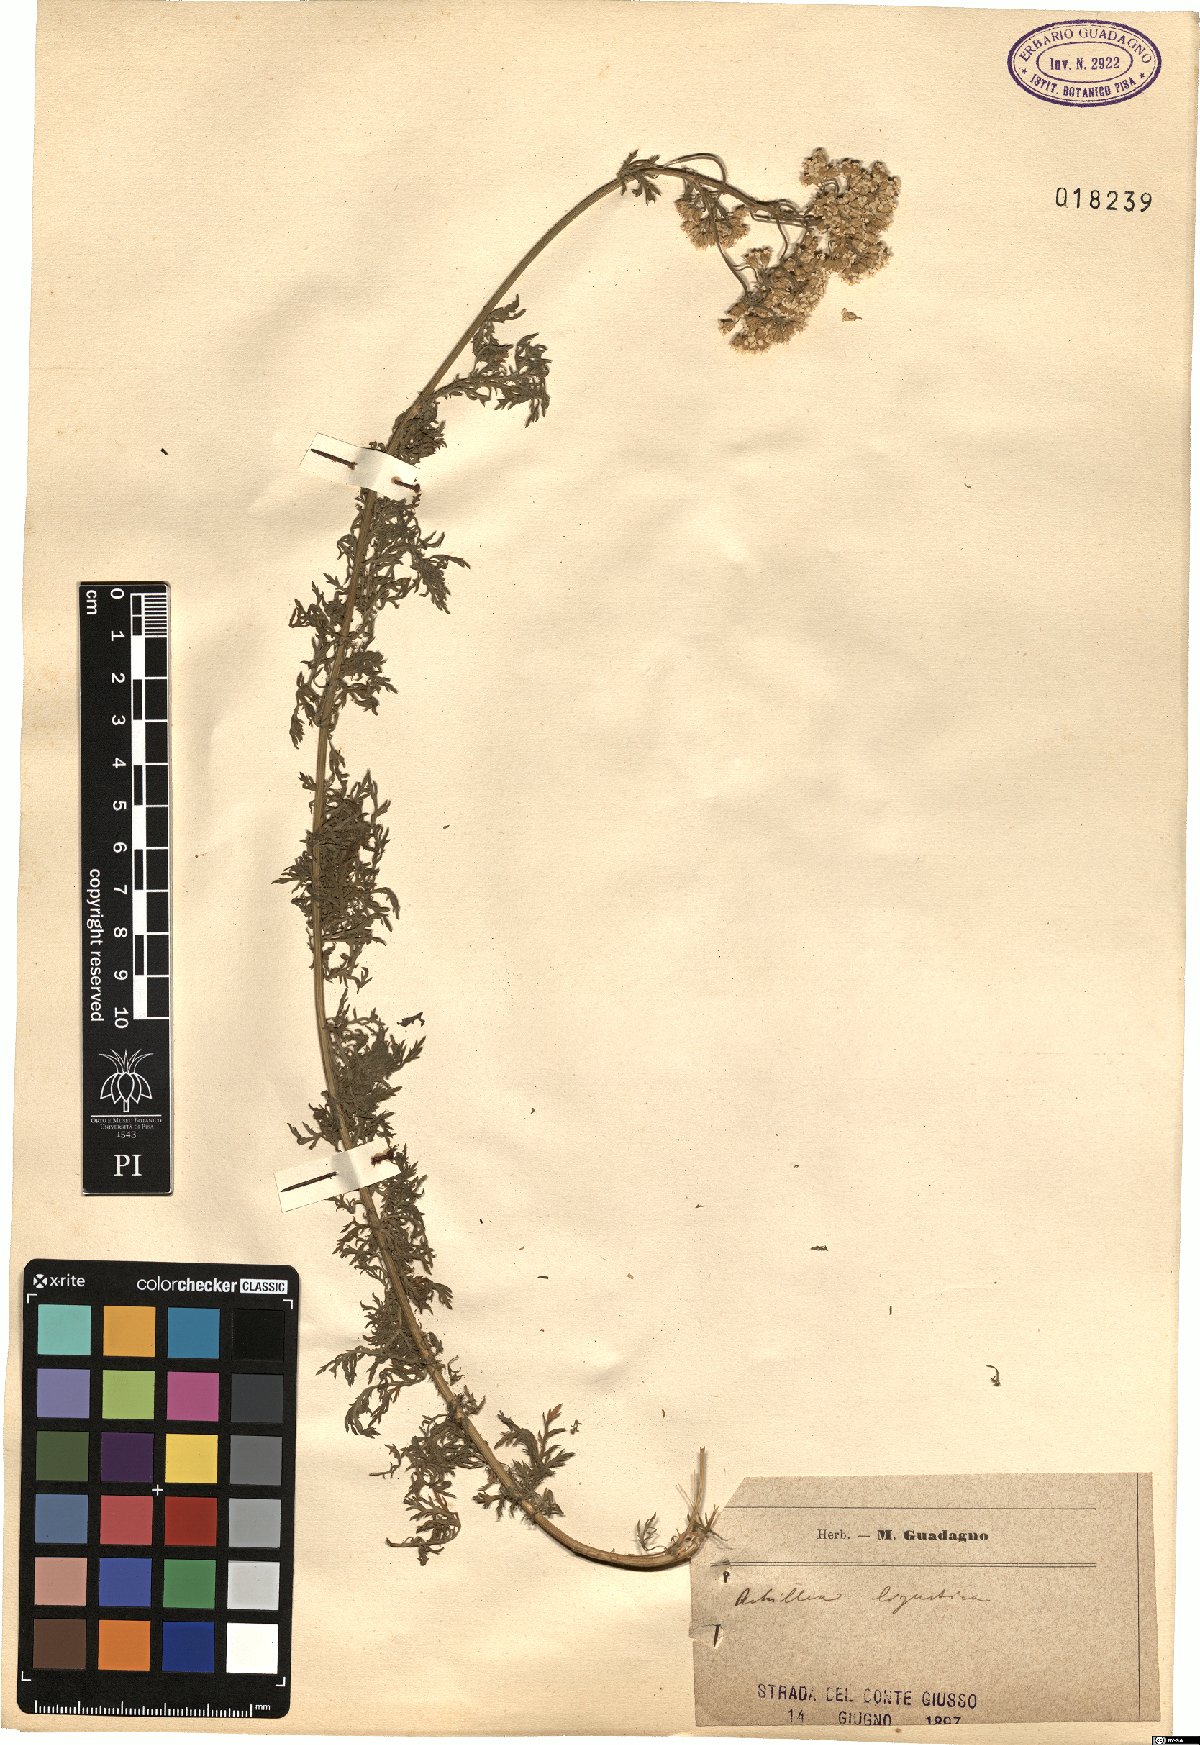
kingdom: Plantae
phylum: Tracheophyta
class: Magnoliopsida
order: Asterales
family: Asteraceae
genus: Achillea
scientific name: Achillea ligustica
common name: Southern yarrow
